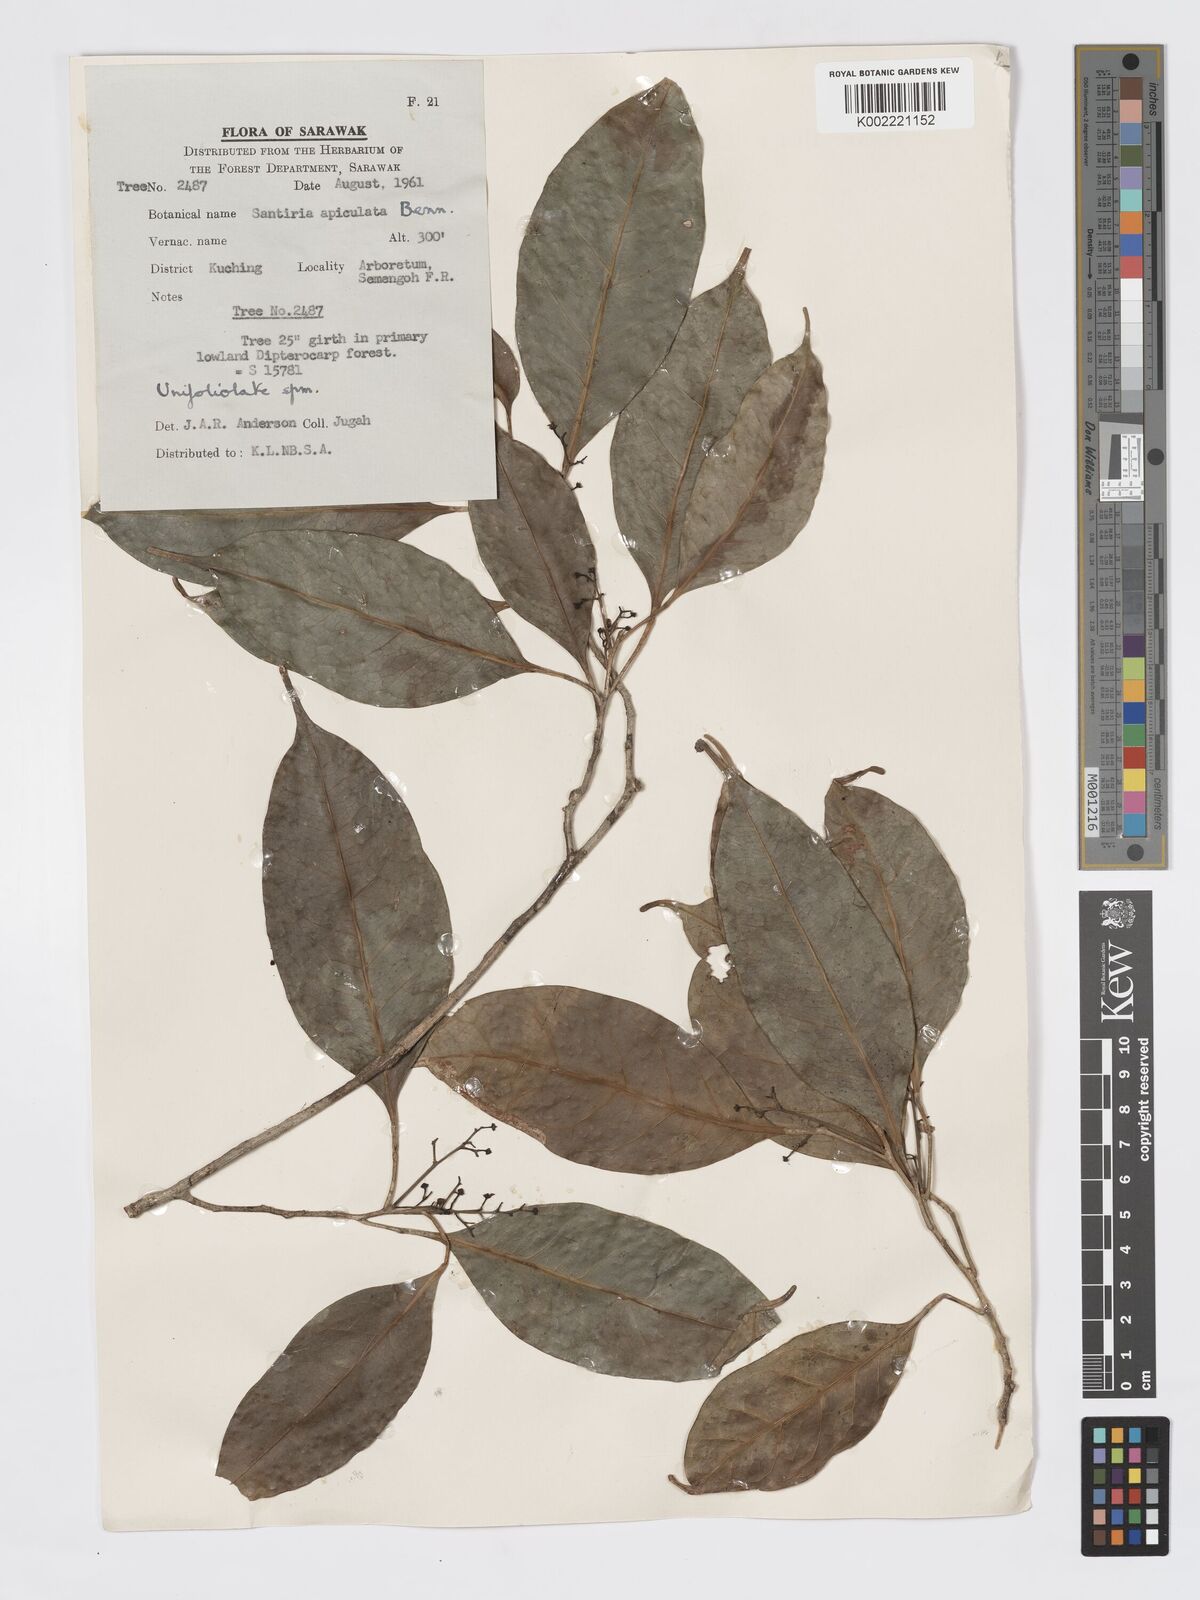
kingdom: Plantae
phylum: Tracheophyta
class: Magnoliopsida
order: Sapindales
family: Burseraceae
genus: Santiria
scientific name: Santiria apiculata
